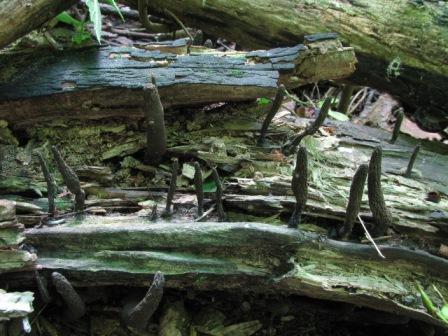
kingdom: Fungi
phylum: Ascomycota
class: Sordariomycetes
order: Xylariales
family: Xylariaceae
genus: Xylaria
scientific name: Xylaria longipes
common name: slank stødsvamp
